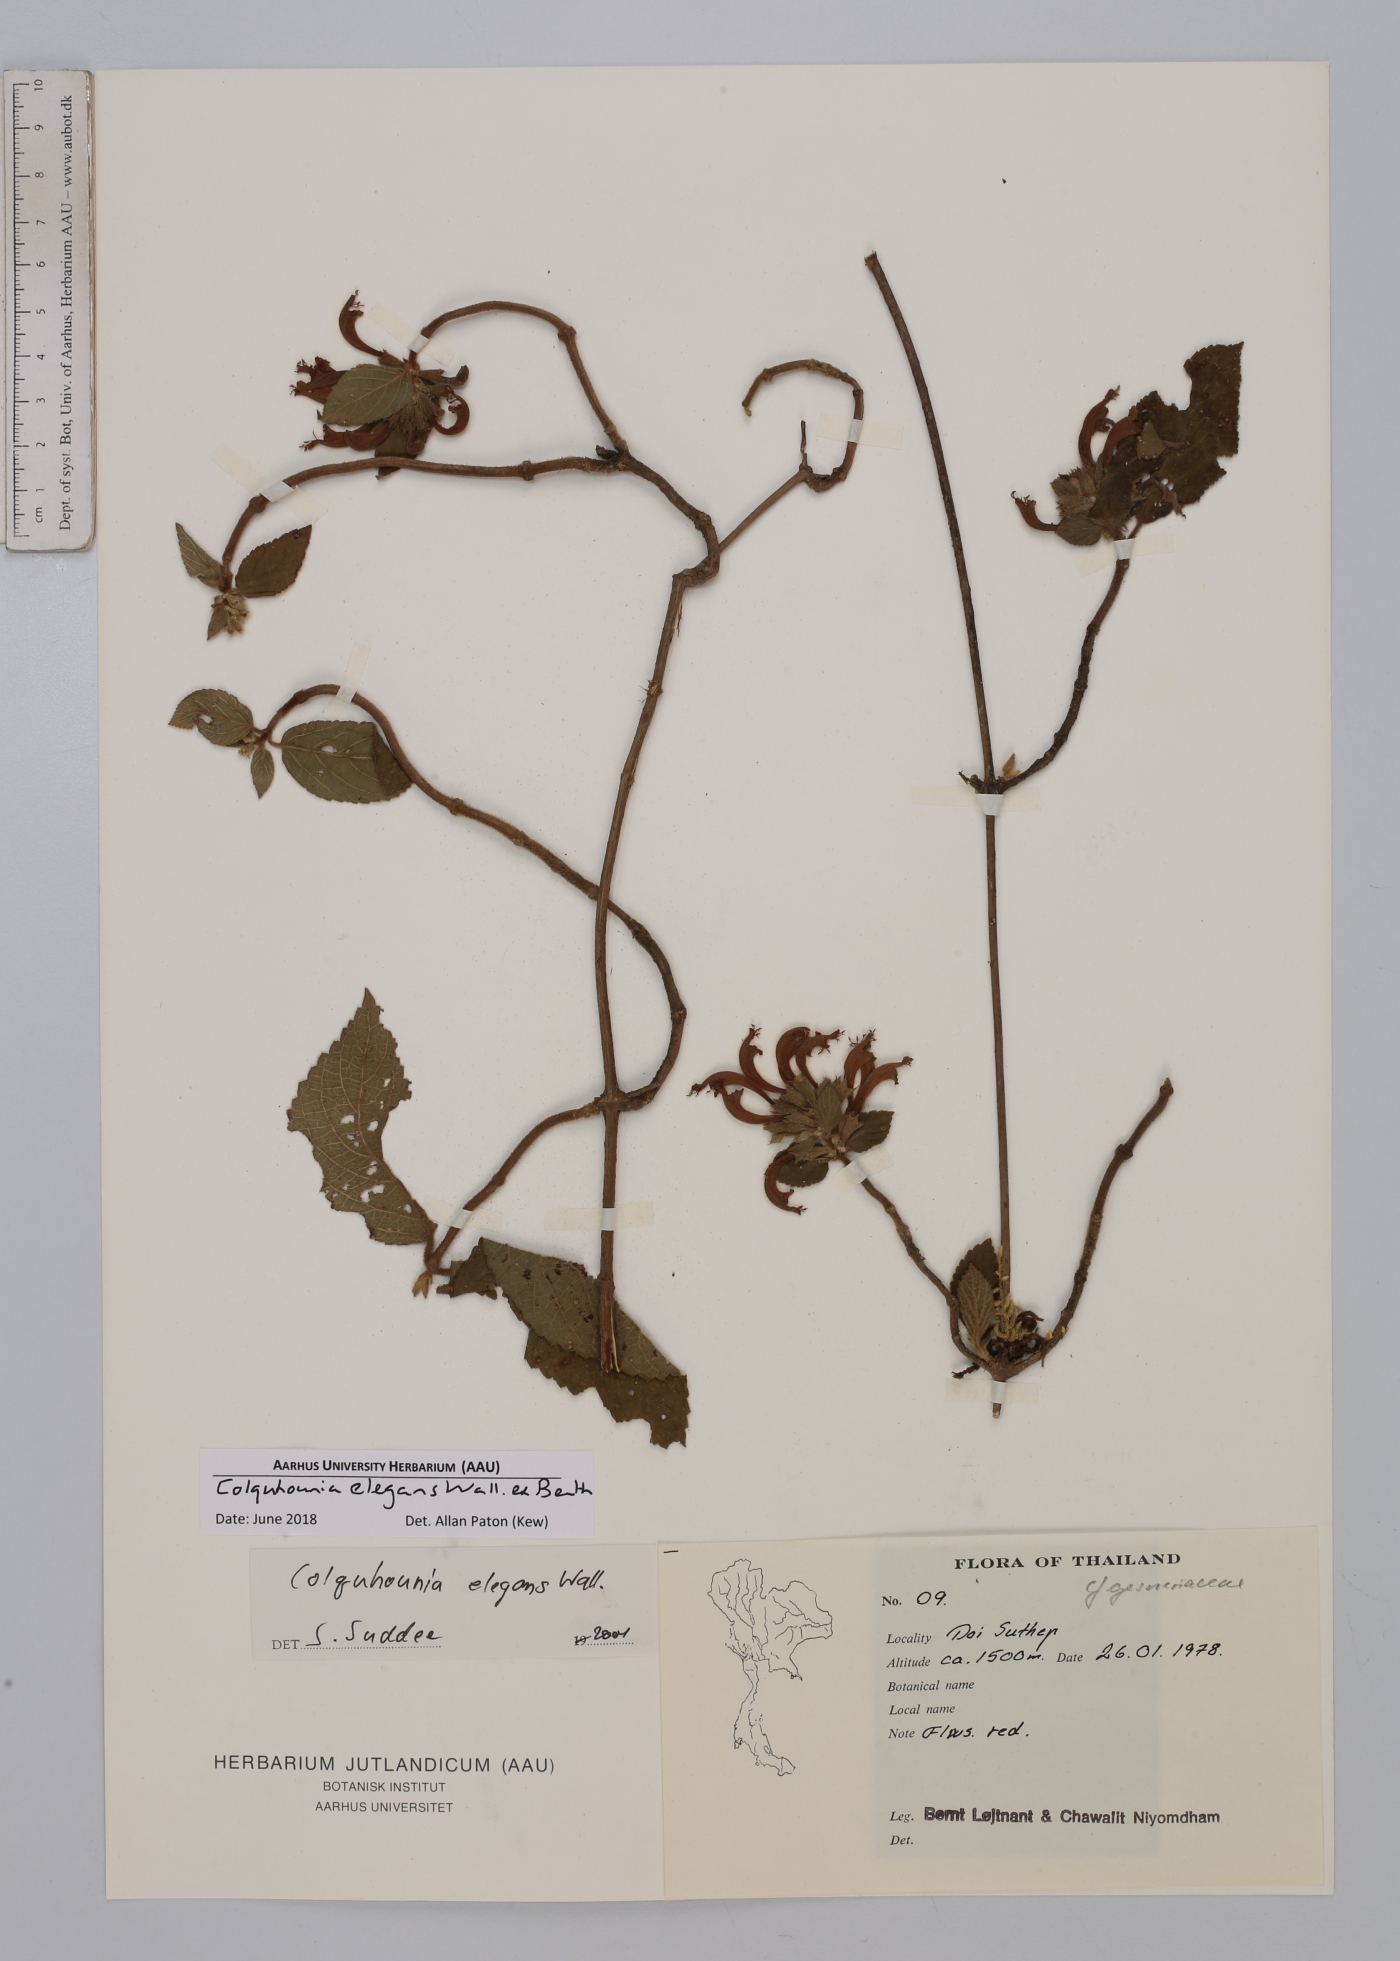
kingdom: Plantae
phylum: Tracheophyta
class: Magnoliopsida
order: Lamiales
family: Lamiaceae
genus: Colquhounia
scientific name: Colquhounia elegans
